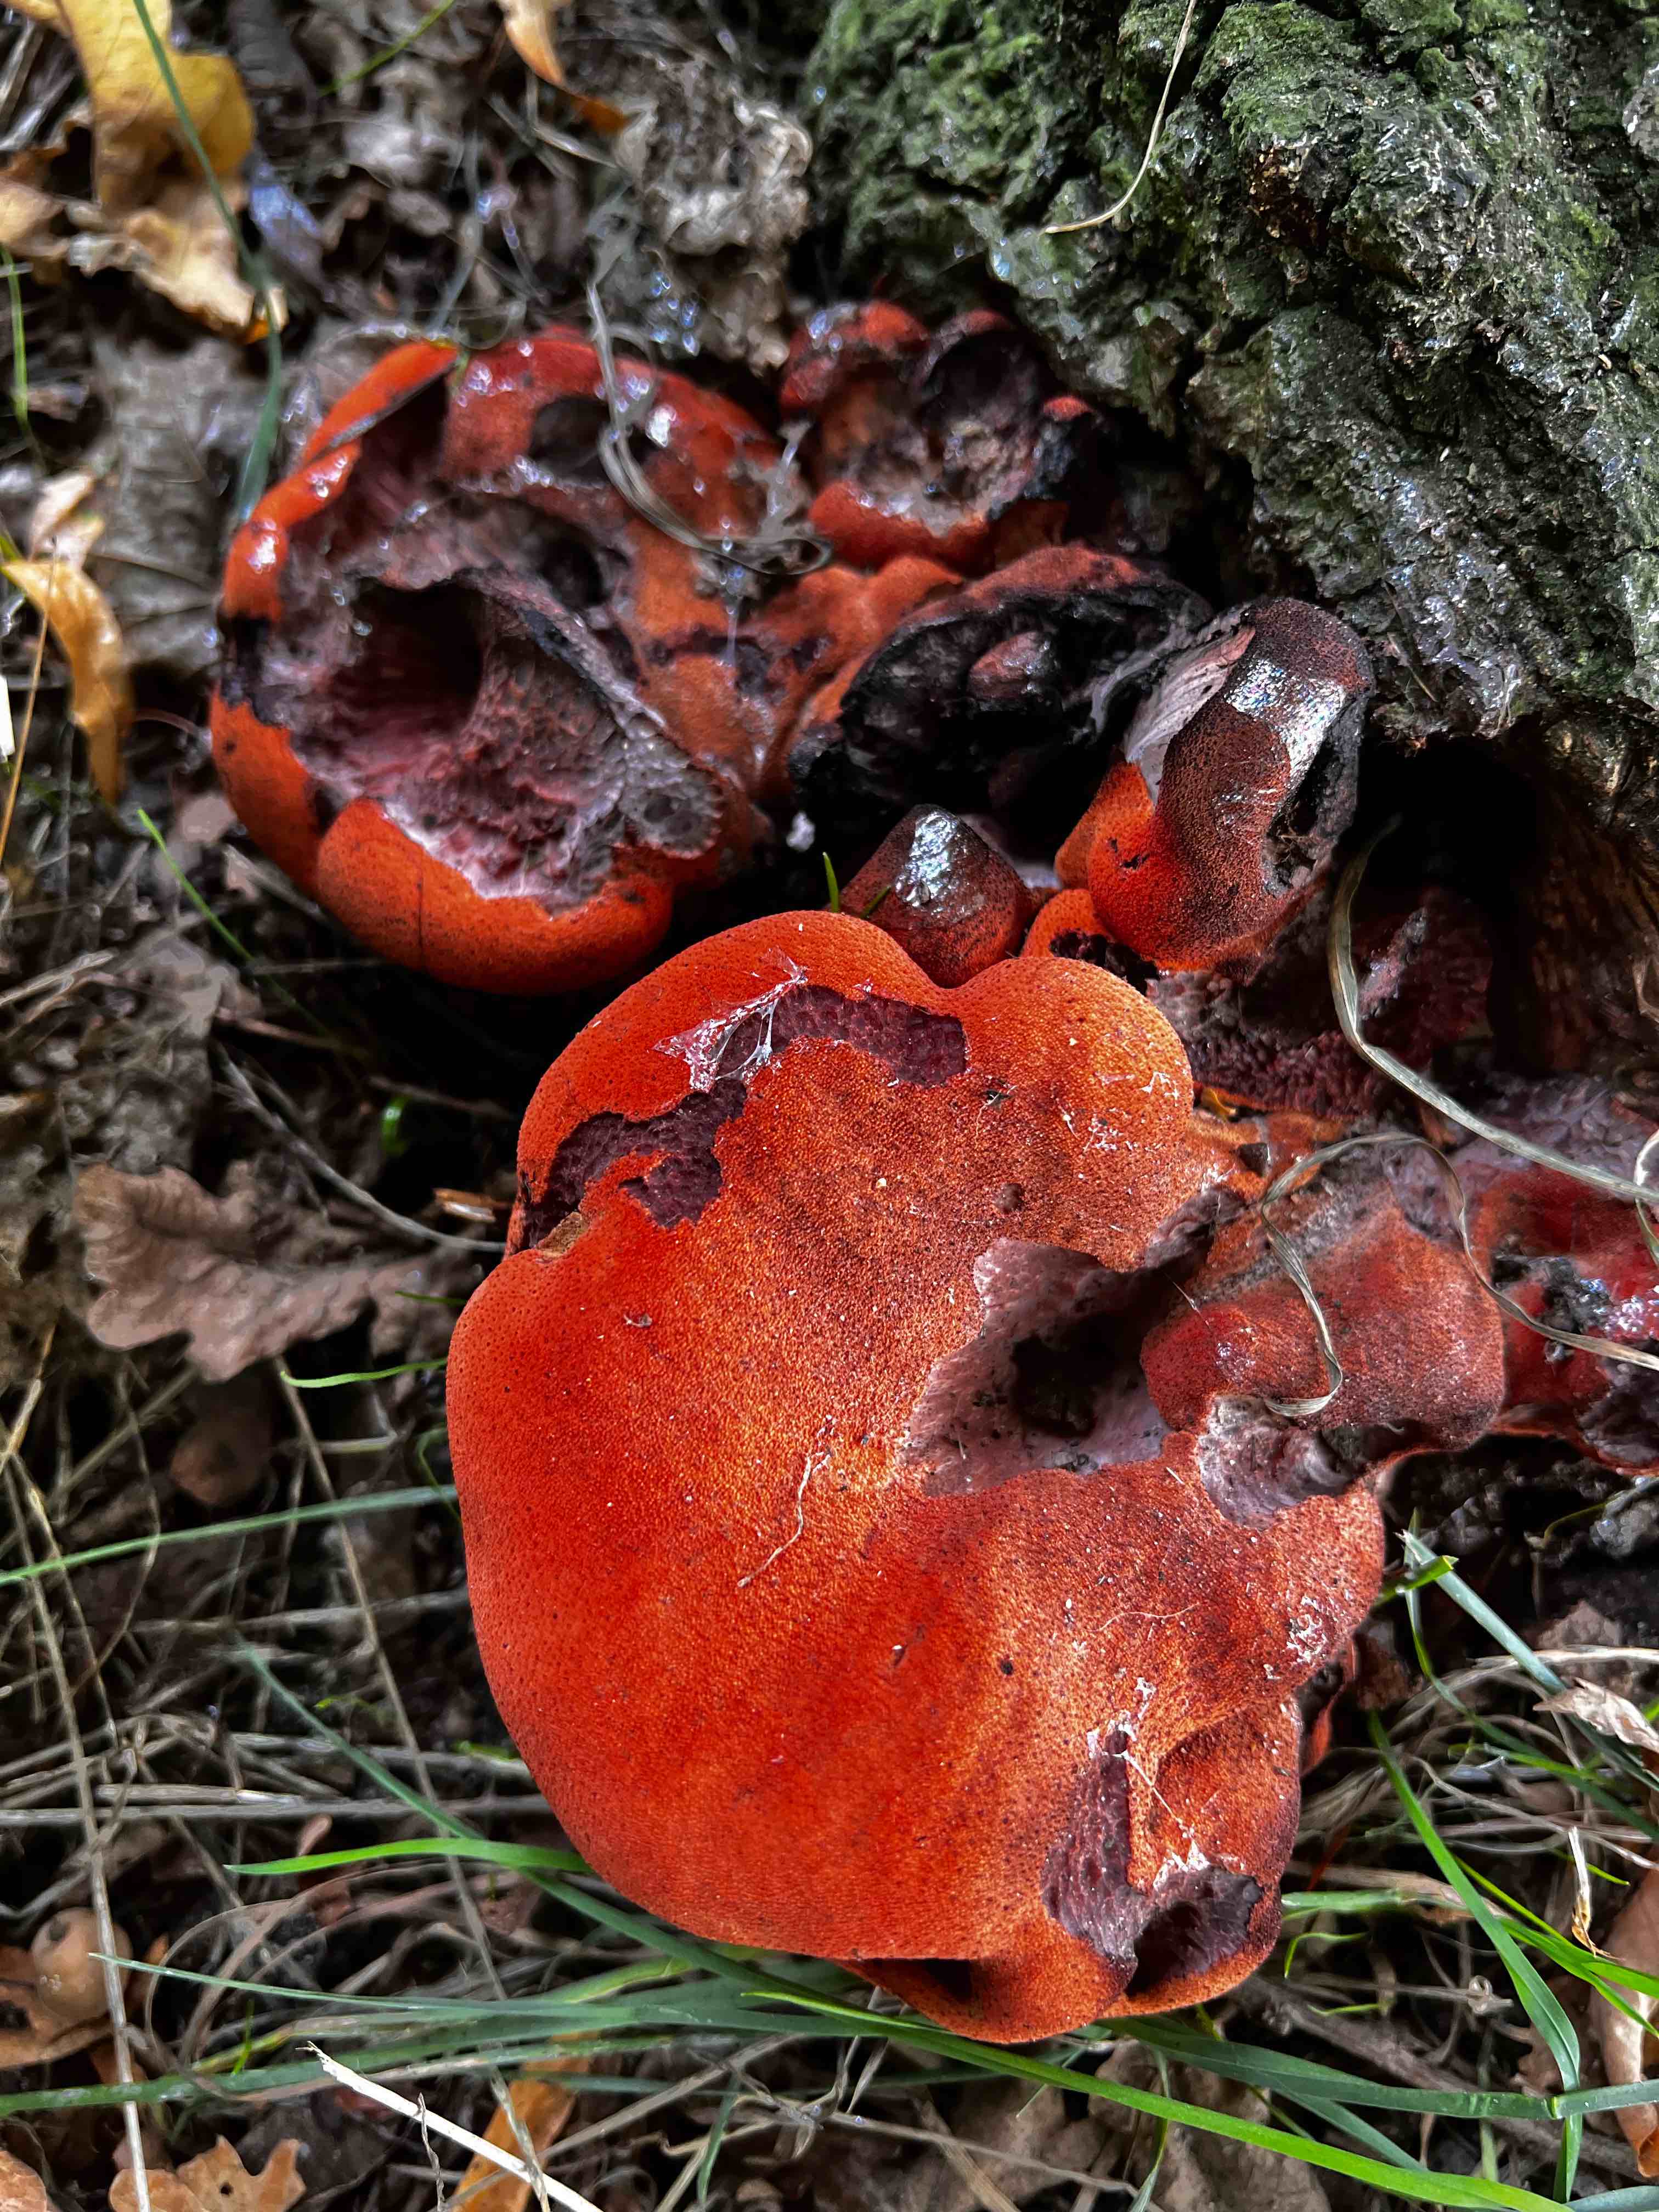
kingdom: Fungi
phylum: Basidiomycota
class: Agaricomycetes
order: Agaricales
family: Fistulinaceae
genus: Fistulina
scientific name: Fistulina hepatica
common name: oksetunge
